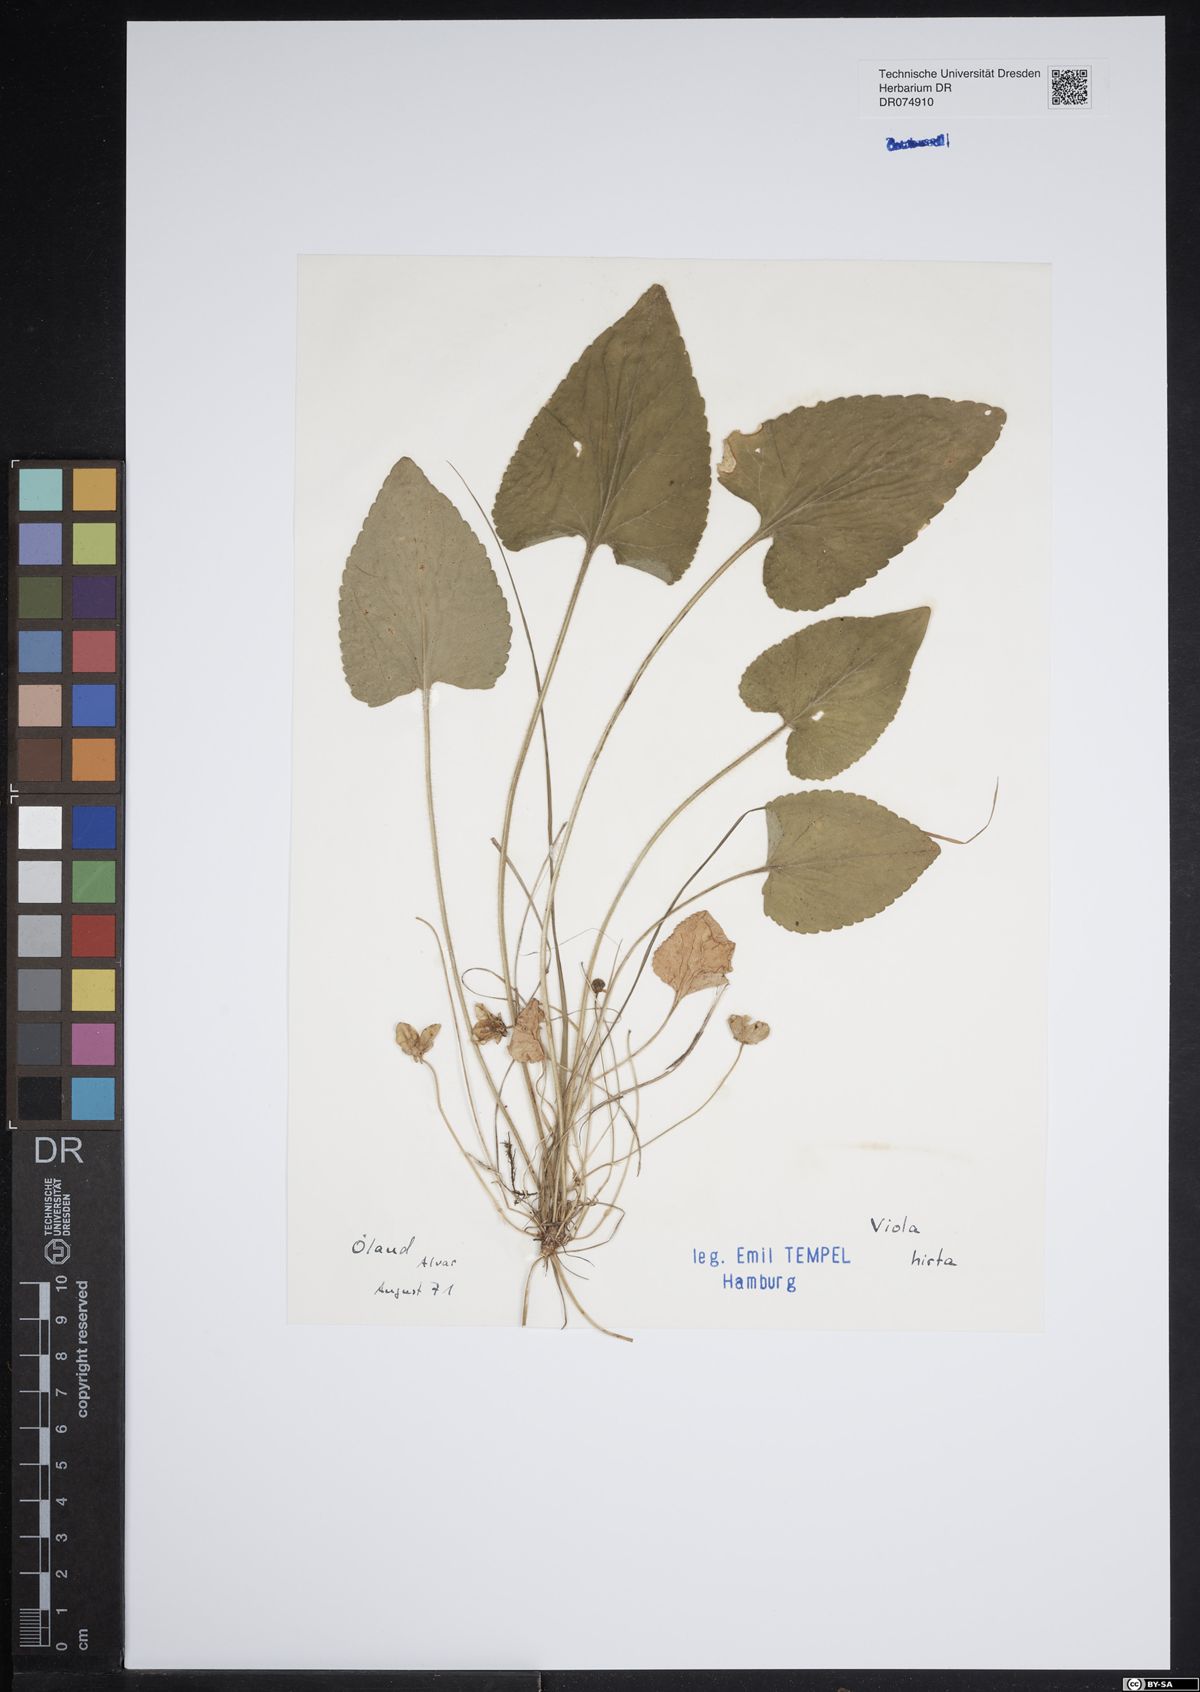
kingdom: Plantae
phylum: Tracheophyta
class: Magnoliopsida
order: Malpighiales
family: Violaceae
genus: Viola
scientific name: Viola hirta
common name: Hairy violet
